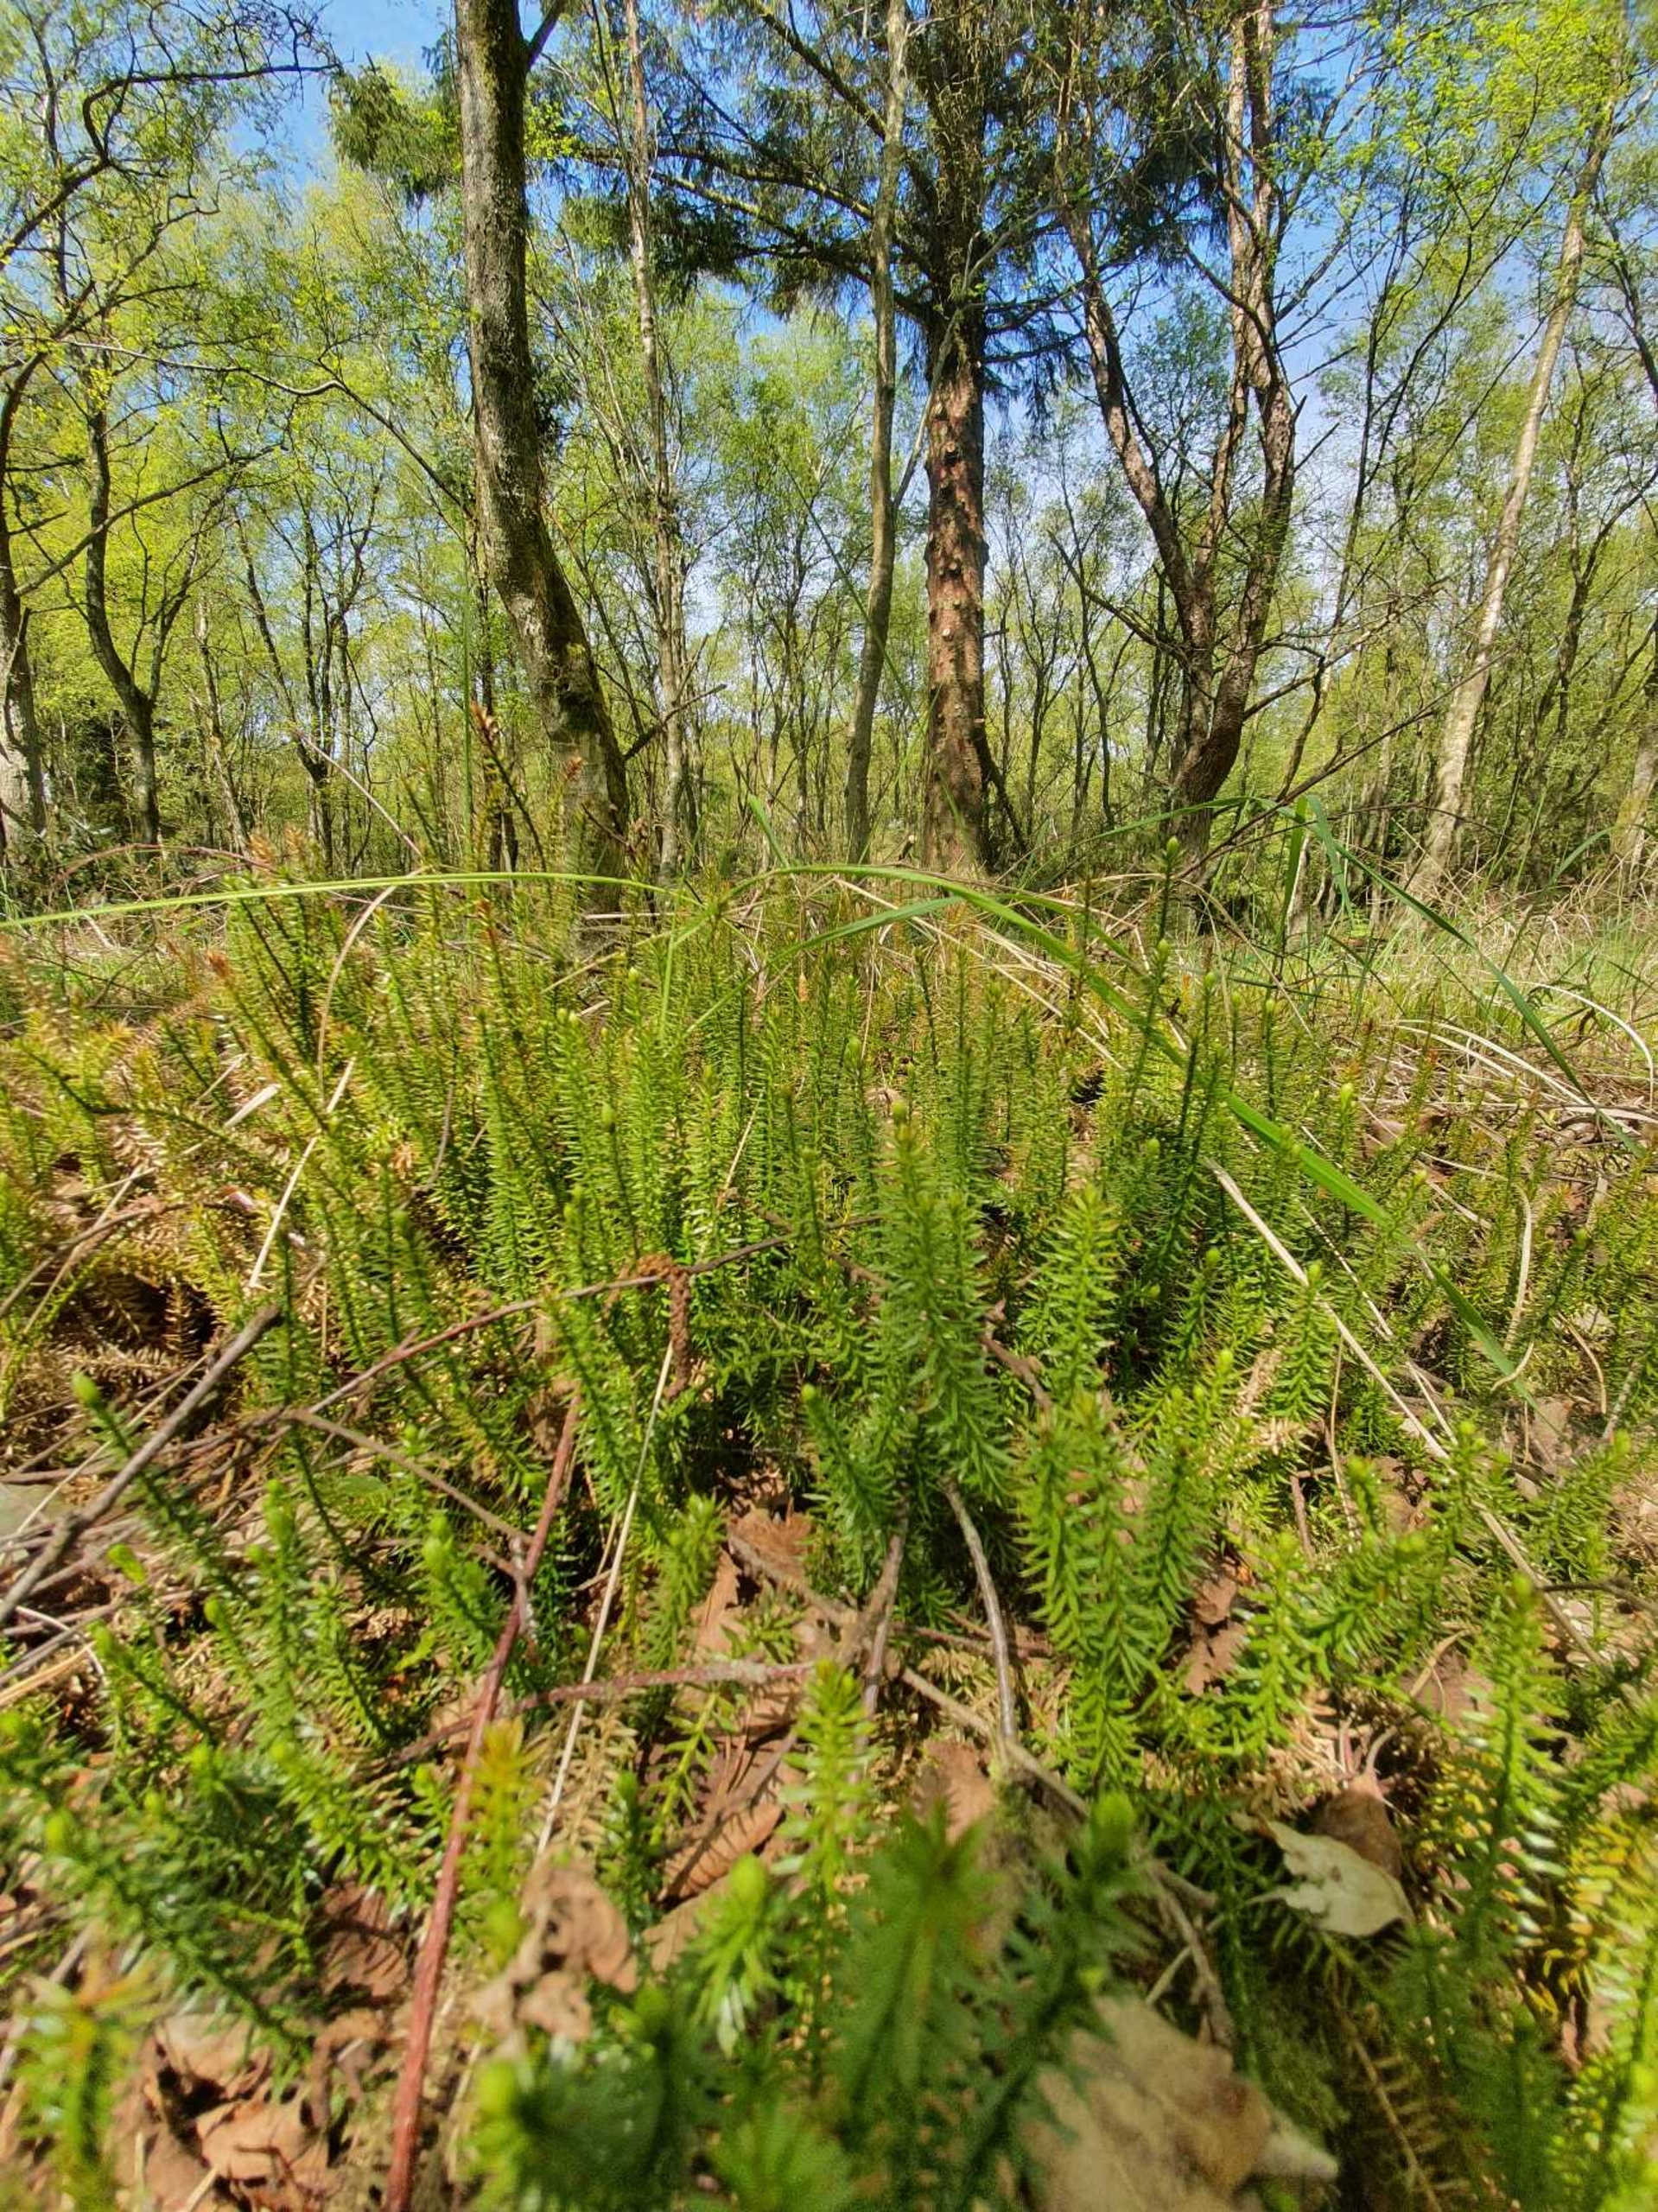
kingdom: Plantae
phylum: Tracheophyta
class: Lycopodiopsida
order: Lycopodiales
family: Lycopodiaceae
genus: Spinulum
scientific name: Spinulum annotinum
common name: Femradet ulvefod
